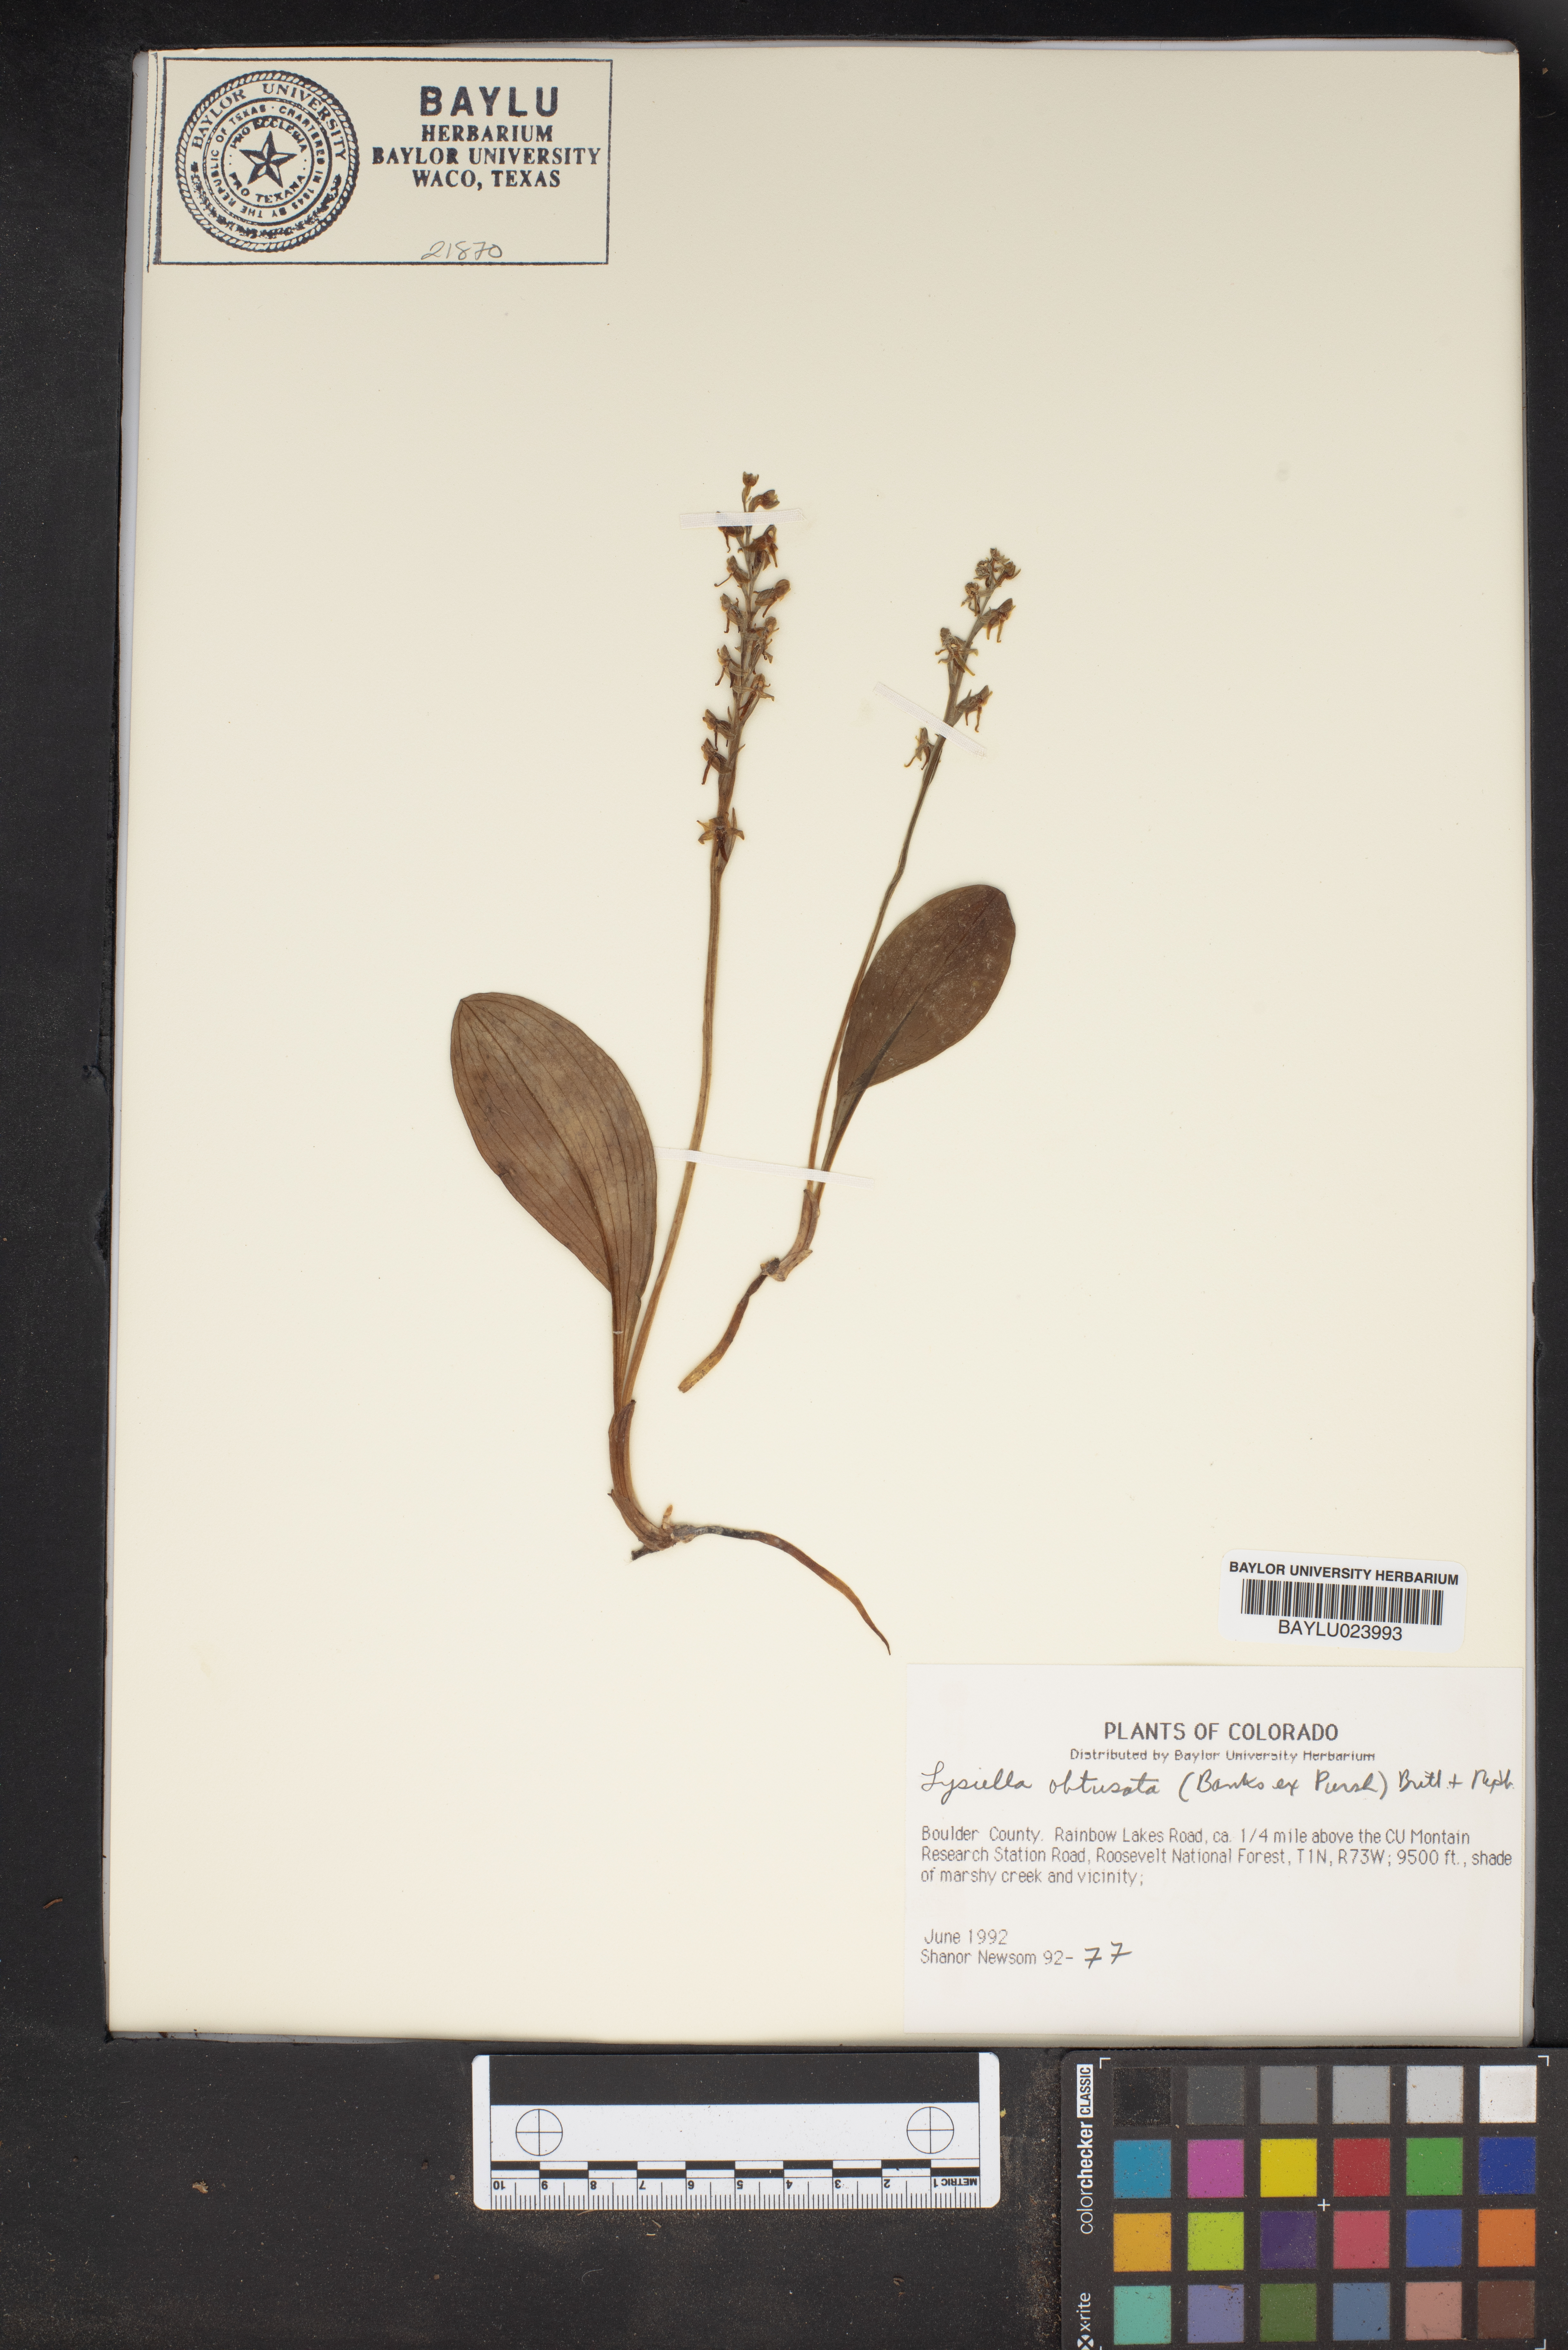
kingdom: Plantae
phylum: Tracheophyta
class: Liliopsida
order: Asparagales
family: Orchidaceae
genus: Platanthera
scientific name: Platanthera obtusata
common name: Blunt bog orchid
